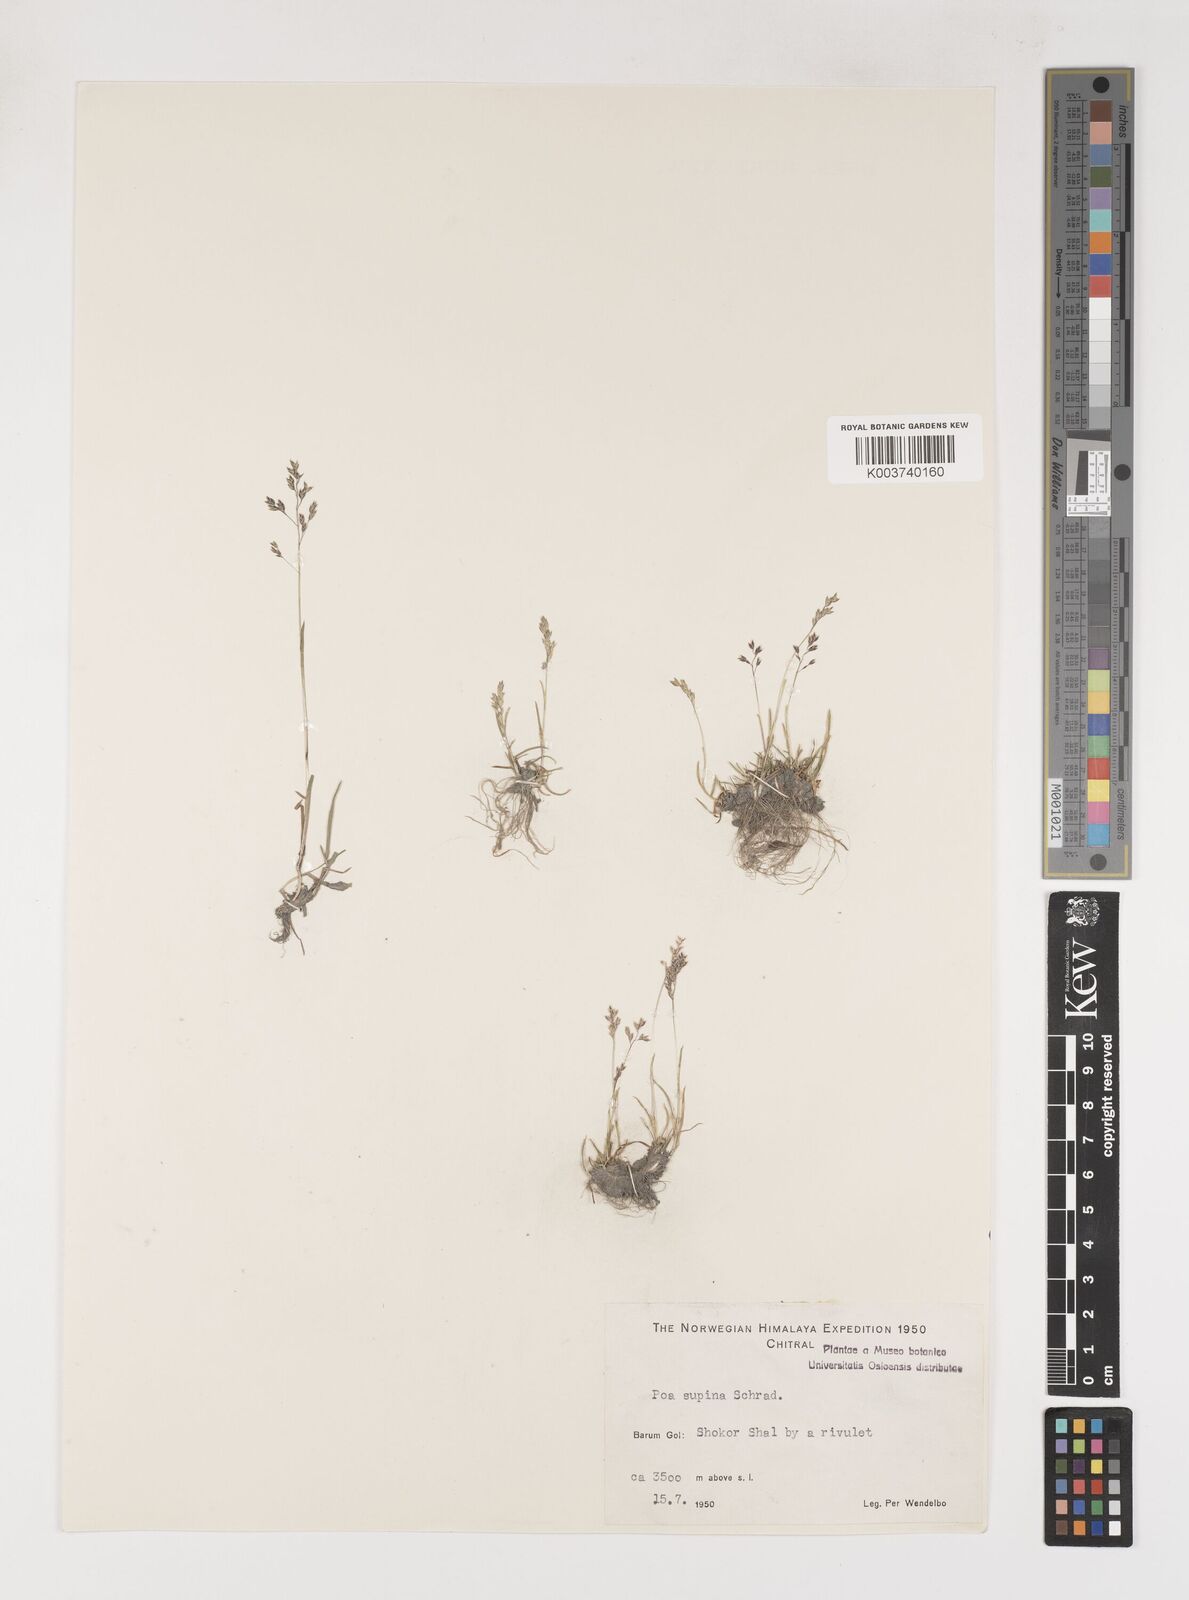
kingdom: Plantae
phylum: Tracheophyta
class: Liliopsida
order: Poales
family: Poaceae
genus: Poa
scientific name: Poa supina
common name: Supina bluegrass
